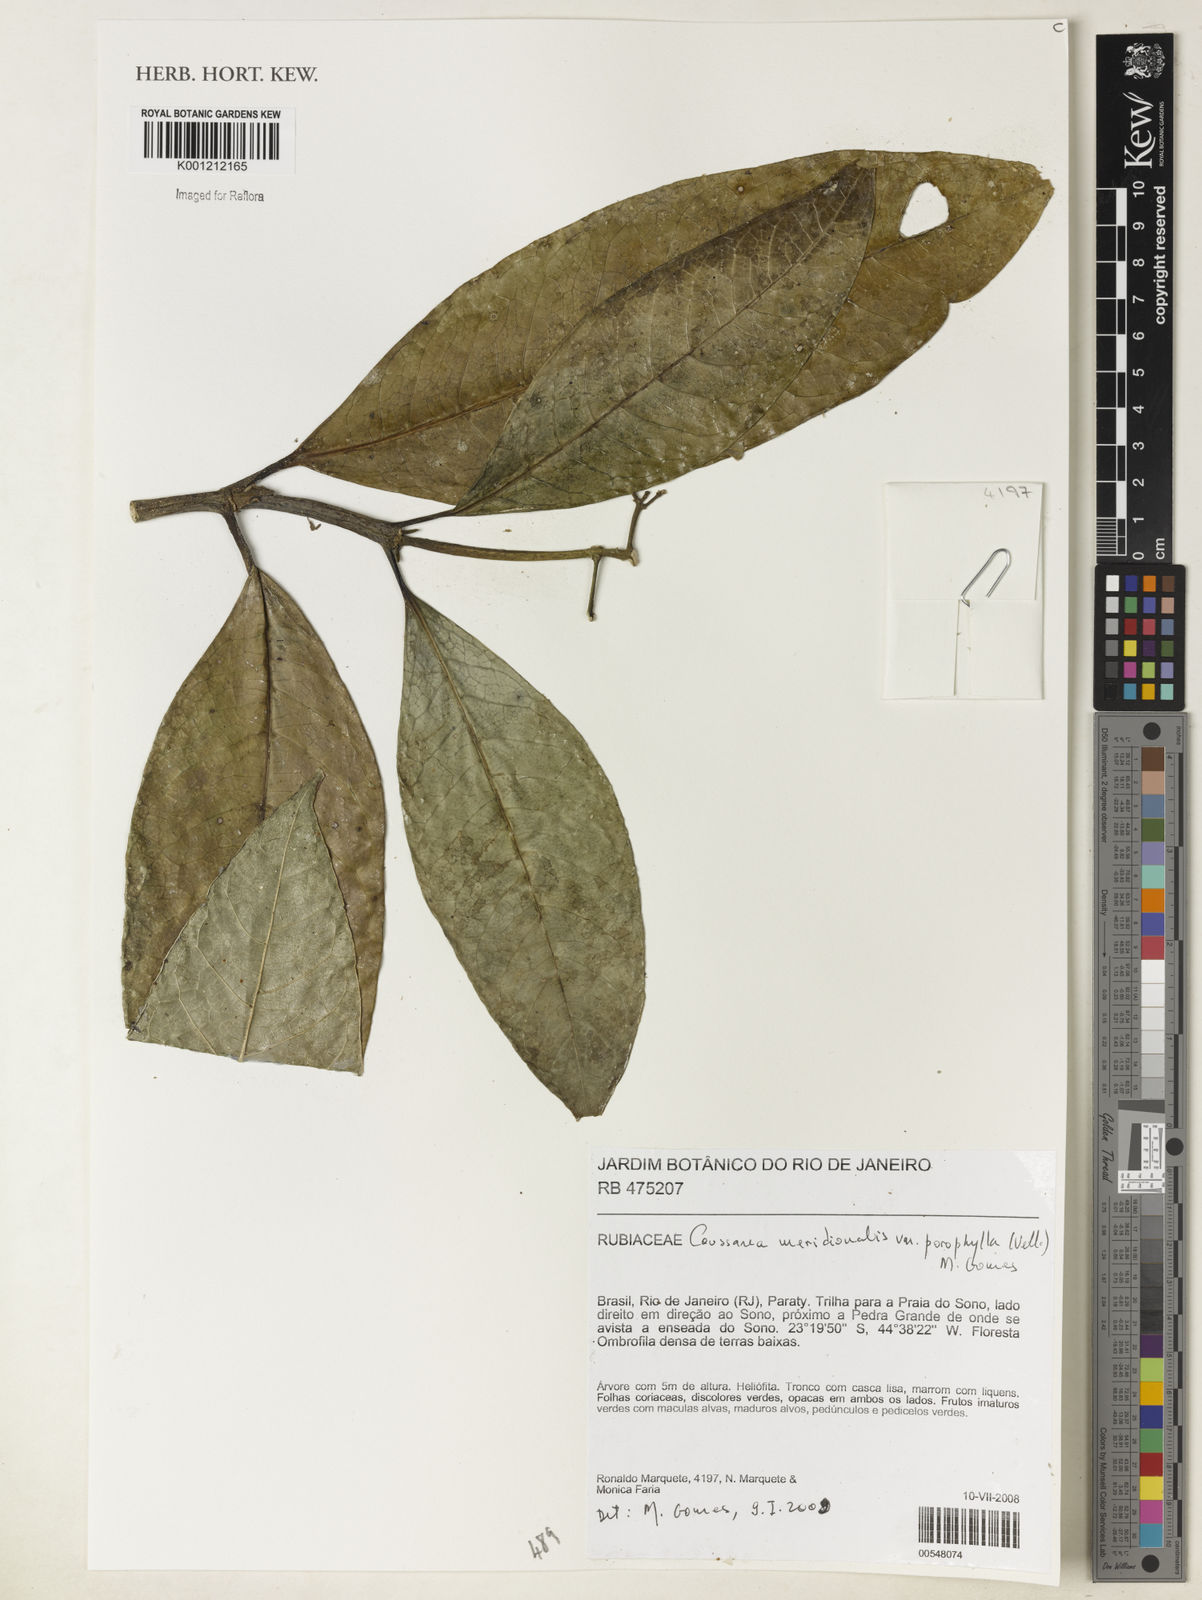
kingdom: Plantae
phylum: Tracheophyta
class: Magnoliopsida
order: Gentianales
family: Rubiaceae
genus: Coussarea
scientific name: Coussarea
